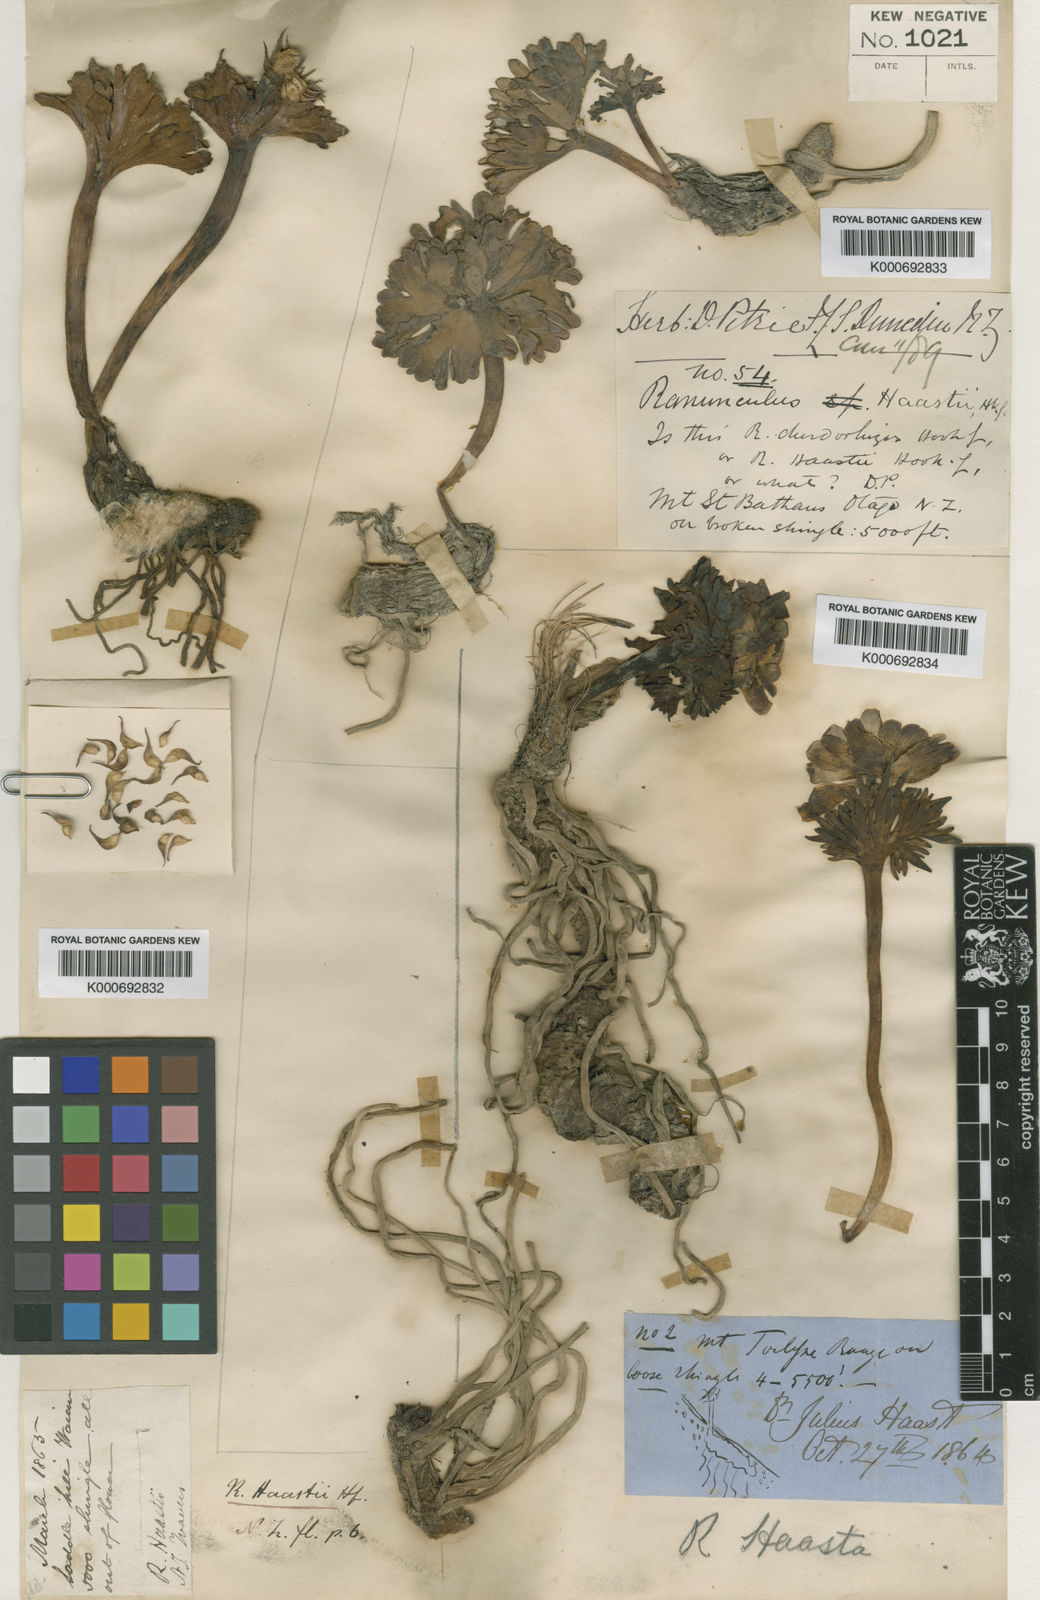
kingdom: Plantae
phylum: Tracheophyta
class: Magnoliopsida
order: Ranunculales
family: Ranunculaceae
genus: Ranunculus
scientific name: Ranunculus haastii
